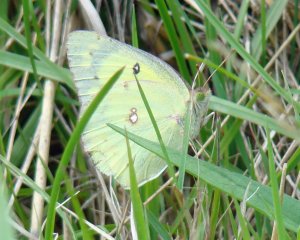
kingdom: Animalia
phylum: Arthropoda
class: Insecta
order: Lepidoptera
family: Pieridae
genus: Colias
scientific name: Colias philodice
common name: Clouded Sulphur
